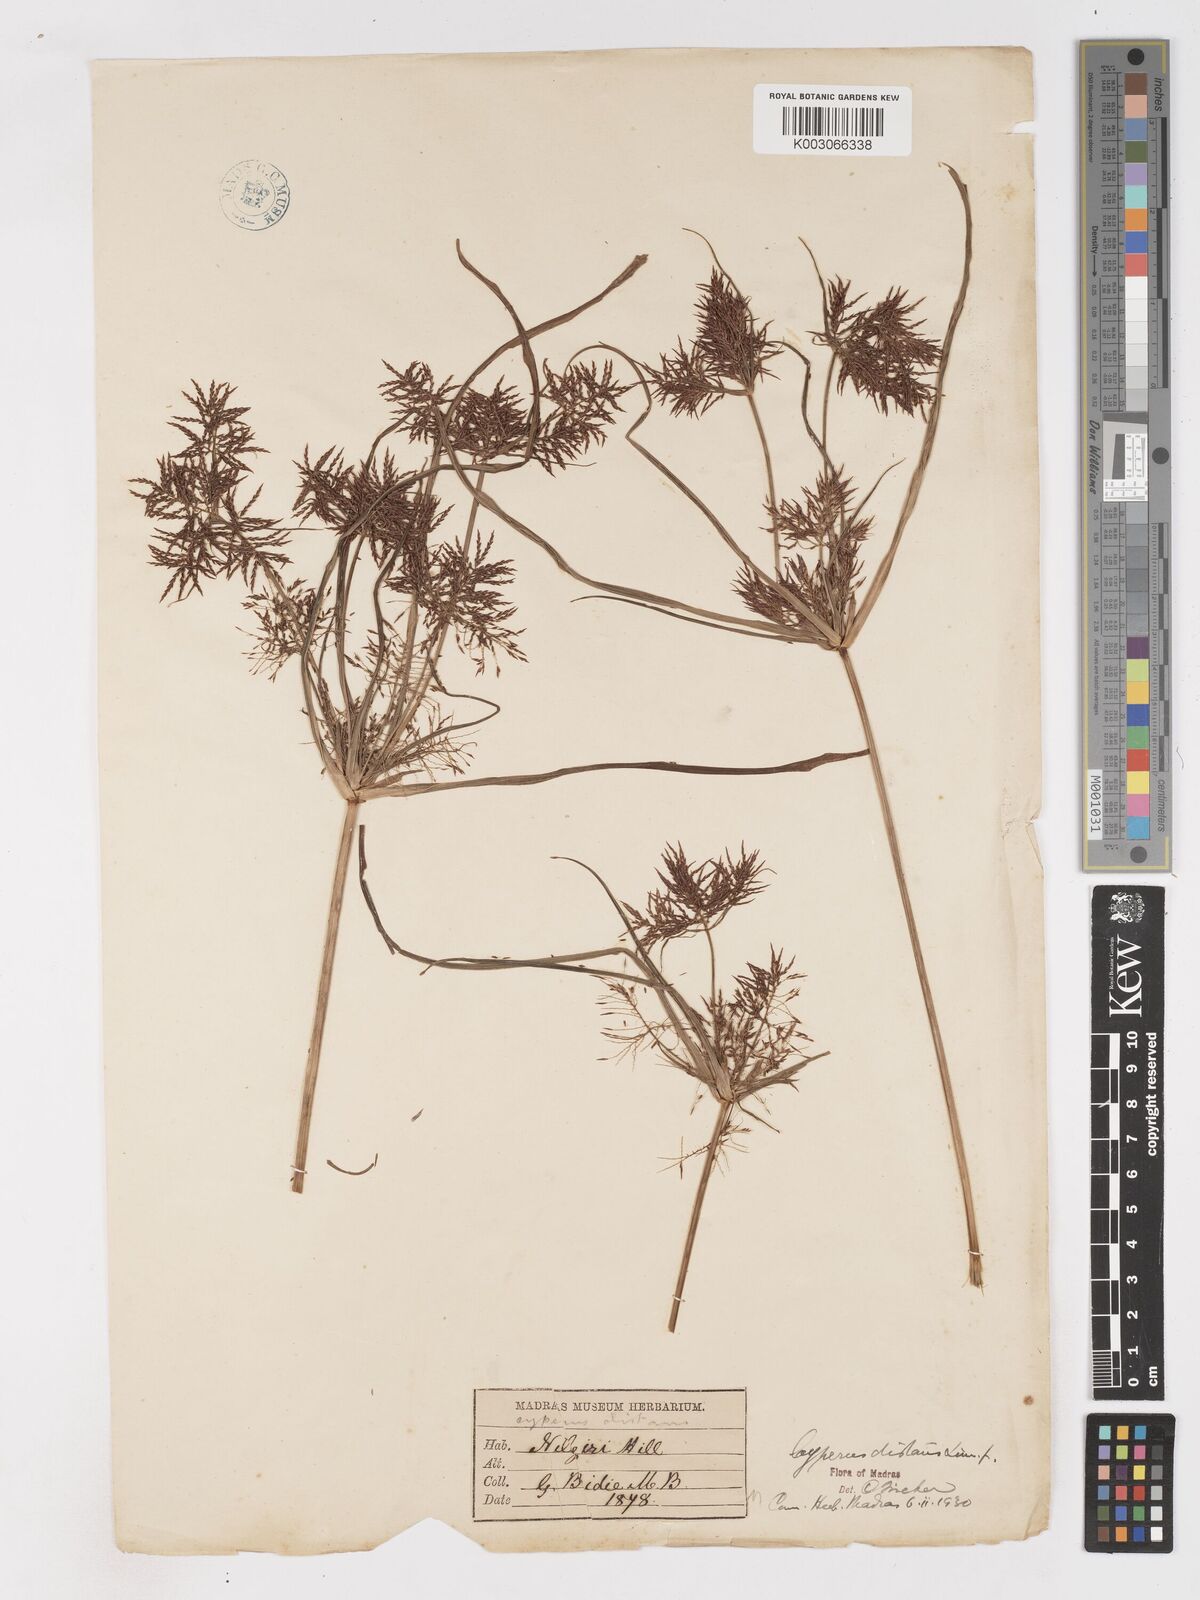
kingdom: Plantae
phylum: Tracheophyta
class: Liliopsida
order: Poales
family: Cyperaceae
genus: Cyperus
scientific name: Cyperus distans
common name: Slender cyperus
